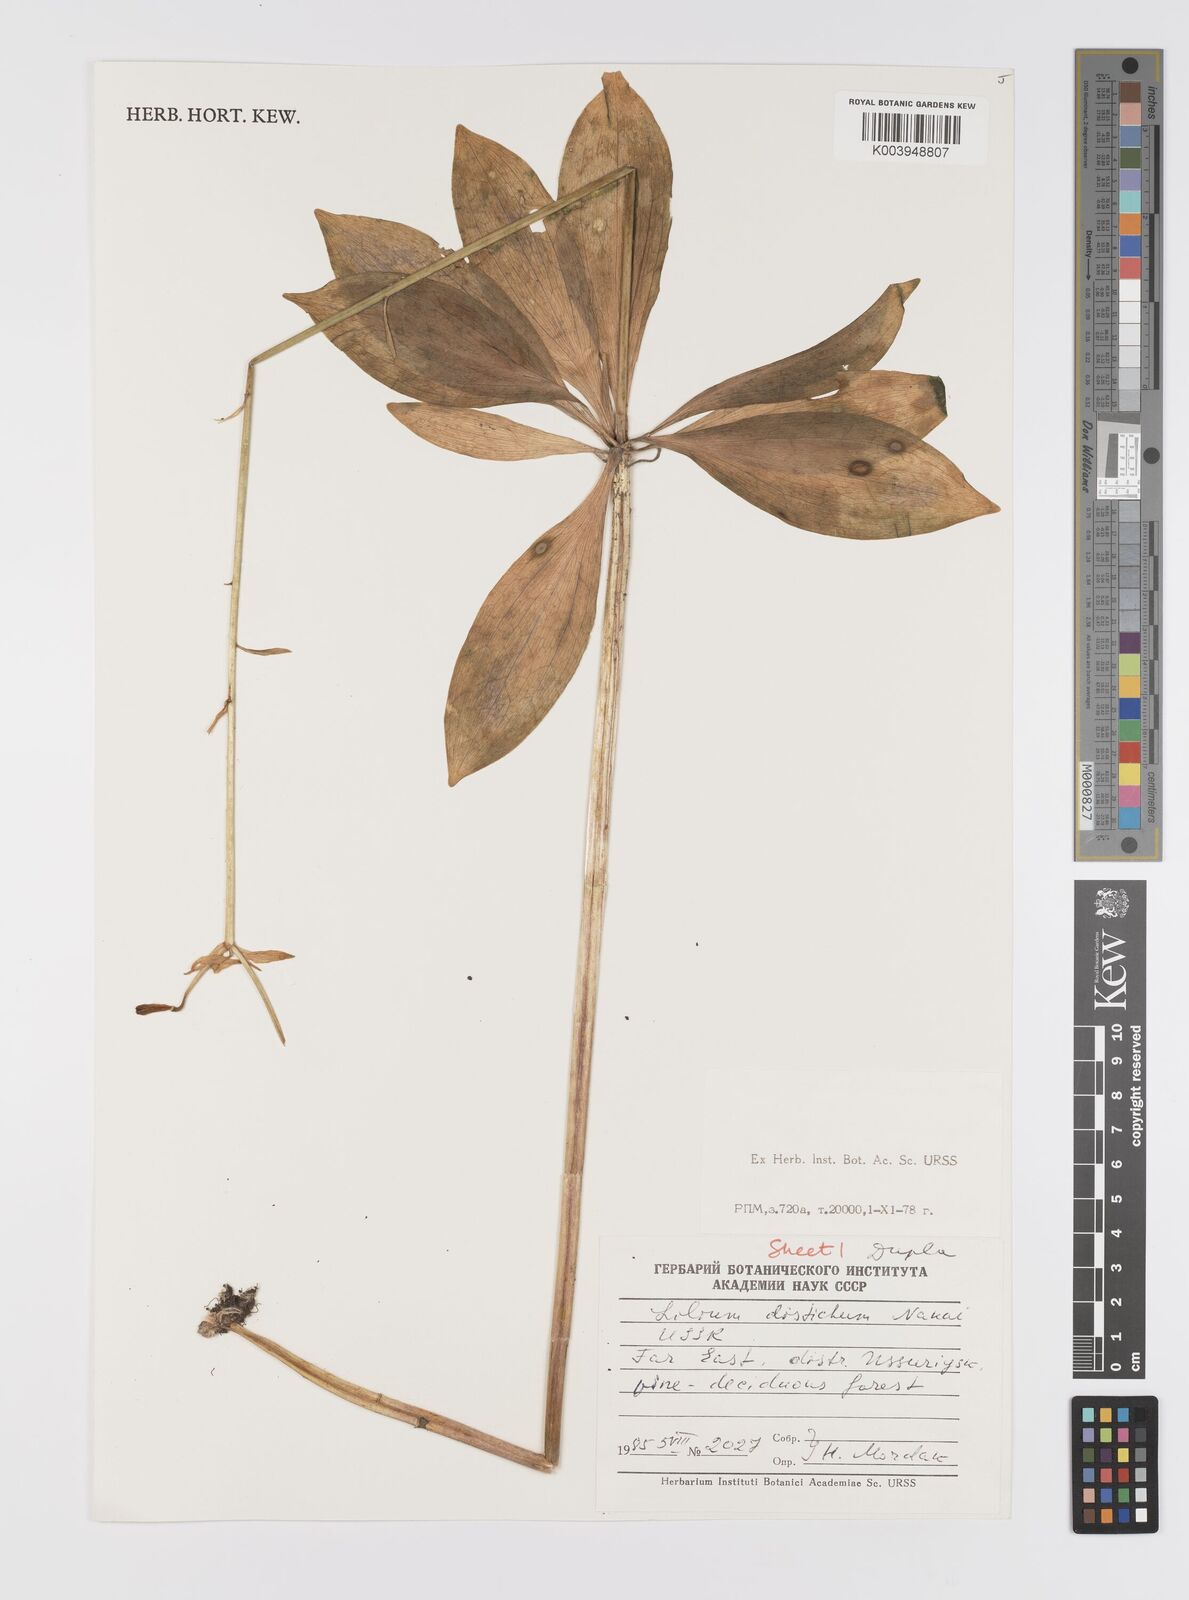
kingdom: Plantae
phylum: Tracheophyta
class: Liliopsida
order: Liliales
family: Liliaceae
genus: Lilium
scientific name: Lilium distichum
